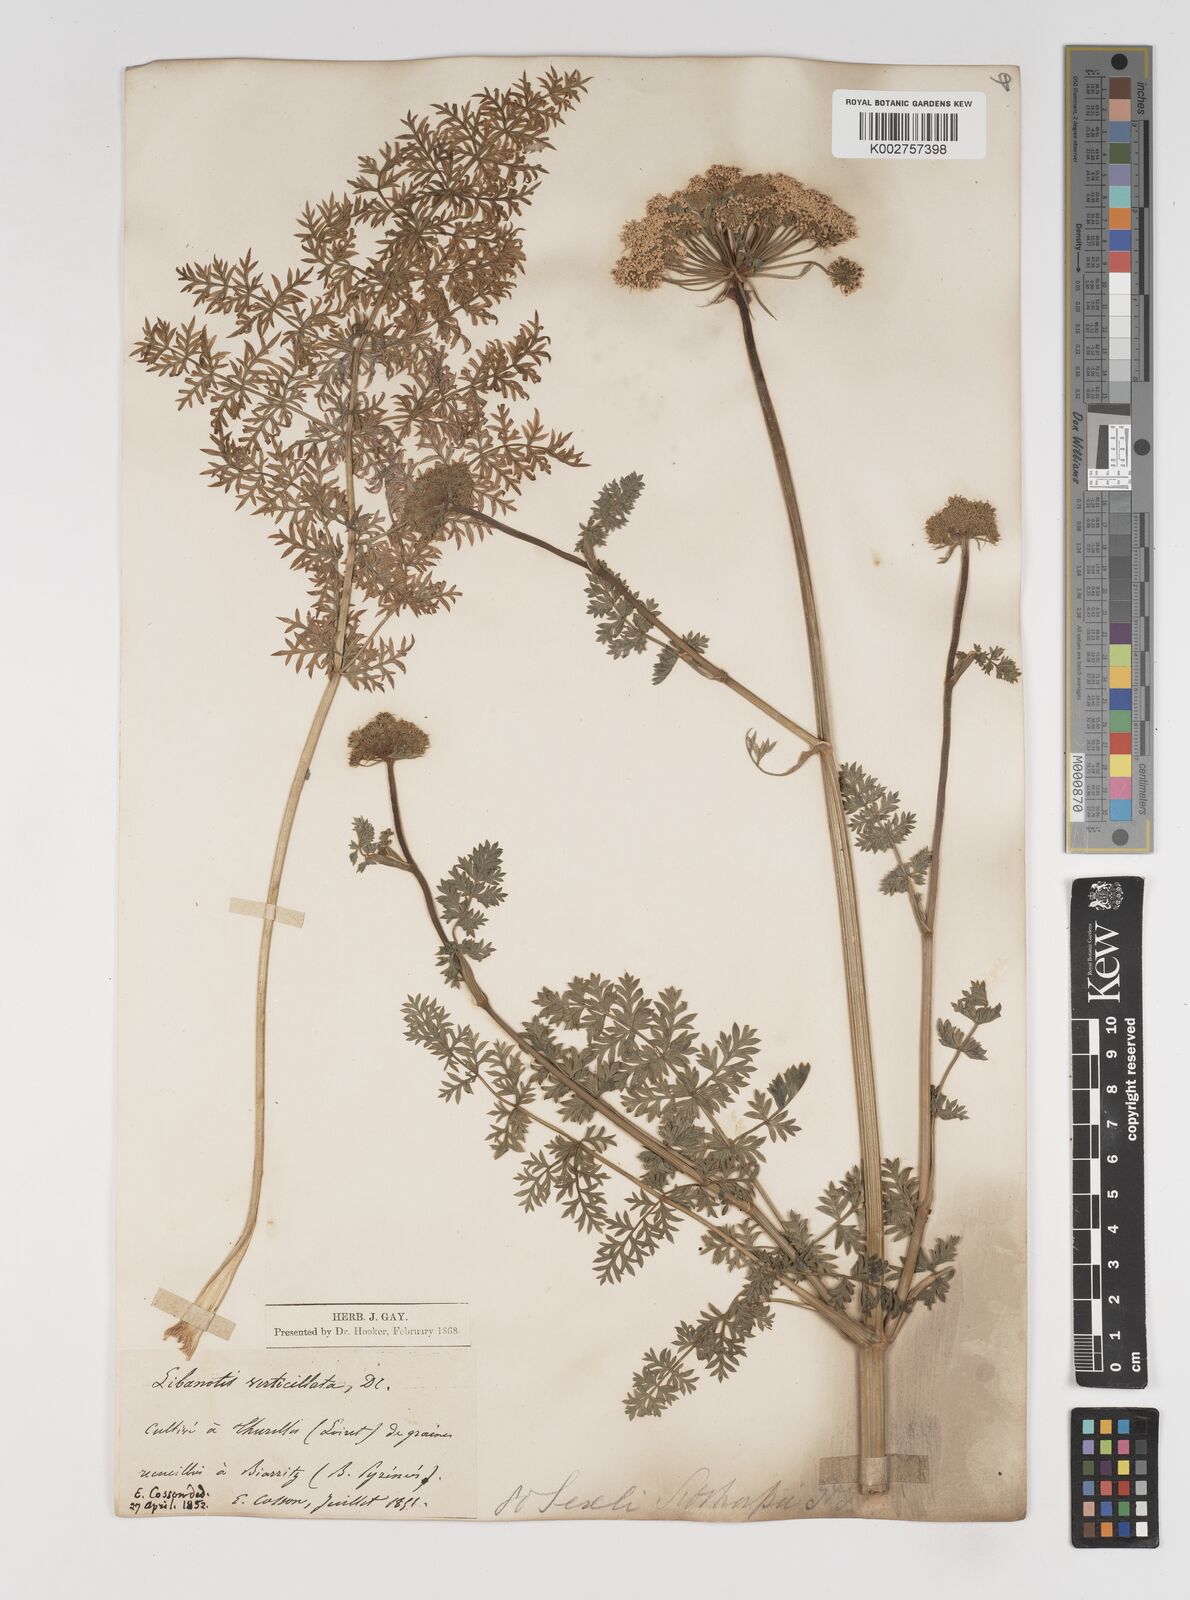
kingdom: Plantae
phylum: Tracheophyta
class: Magnoliopsida
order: Apiales
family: Apiaceae
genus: Seseli
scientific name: Seseli
